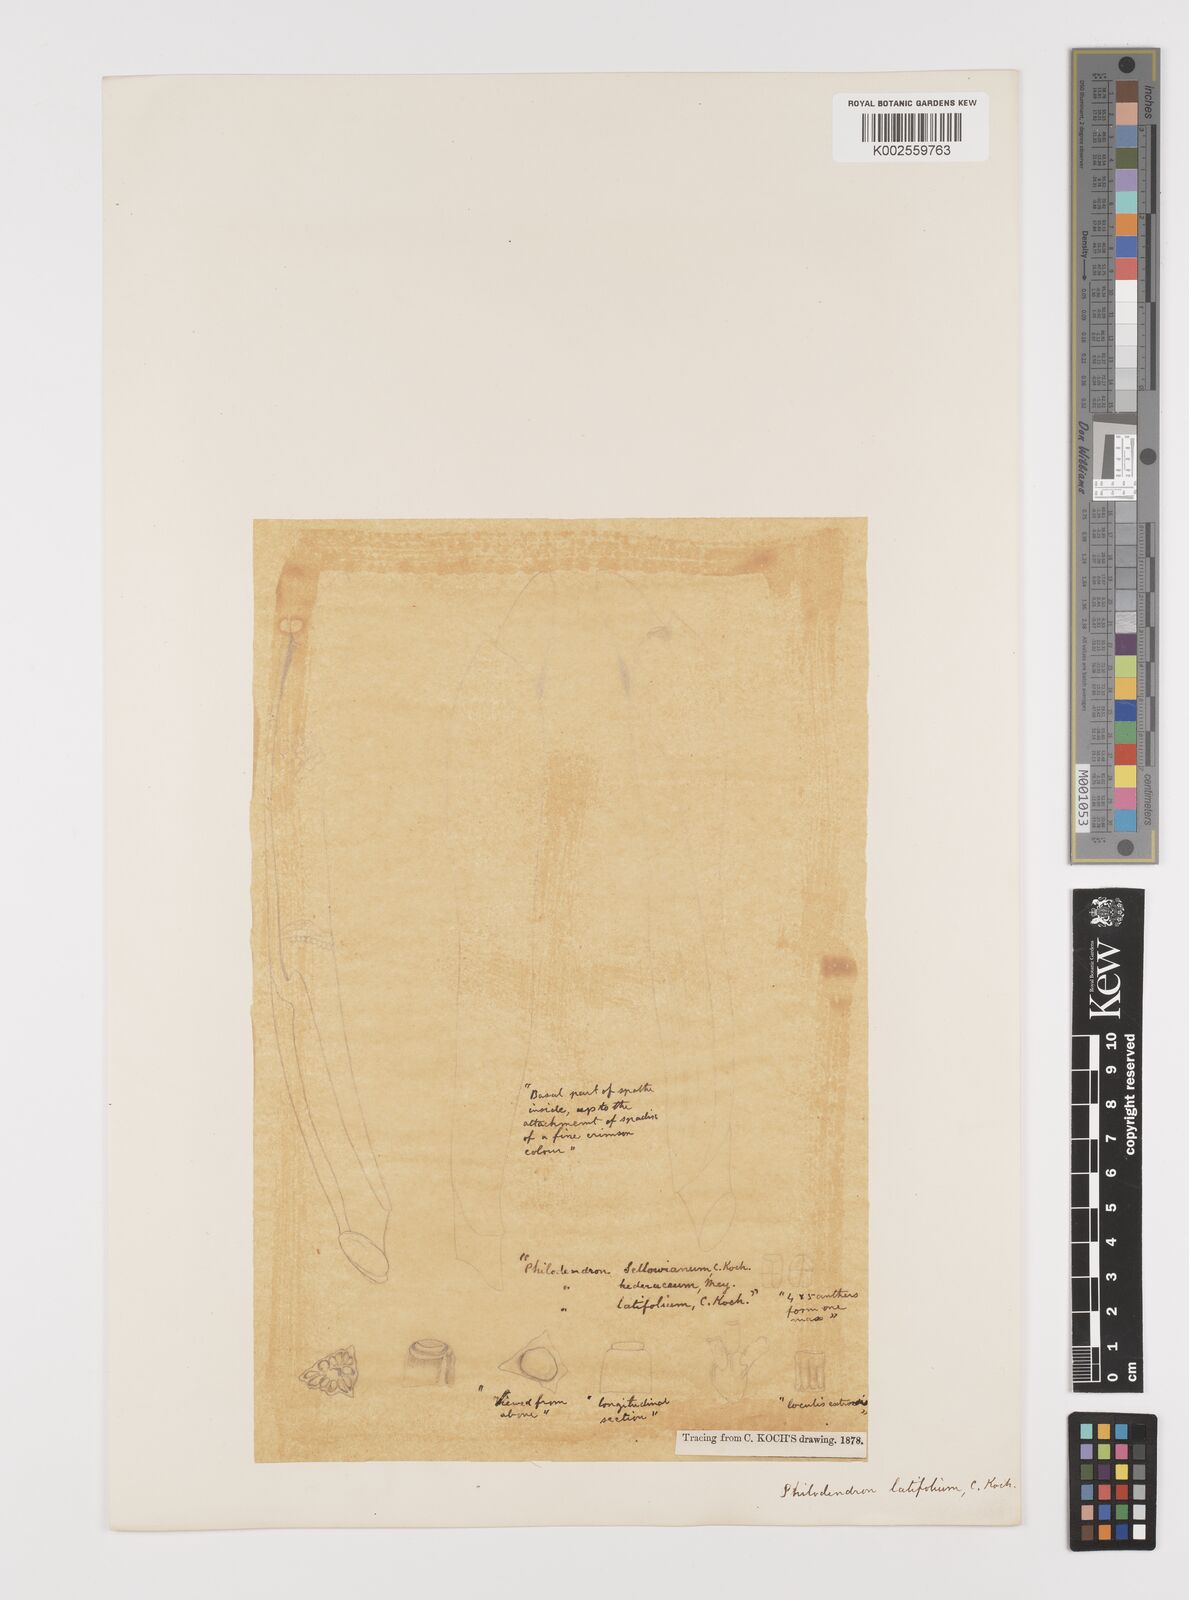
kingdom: Plantae
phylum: Tracheophyta
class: Liliopsida
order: Alismatales
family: Araceae
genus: Philodendron
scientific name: Philodendron latifolium
